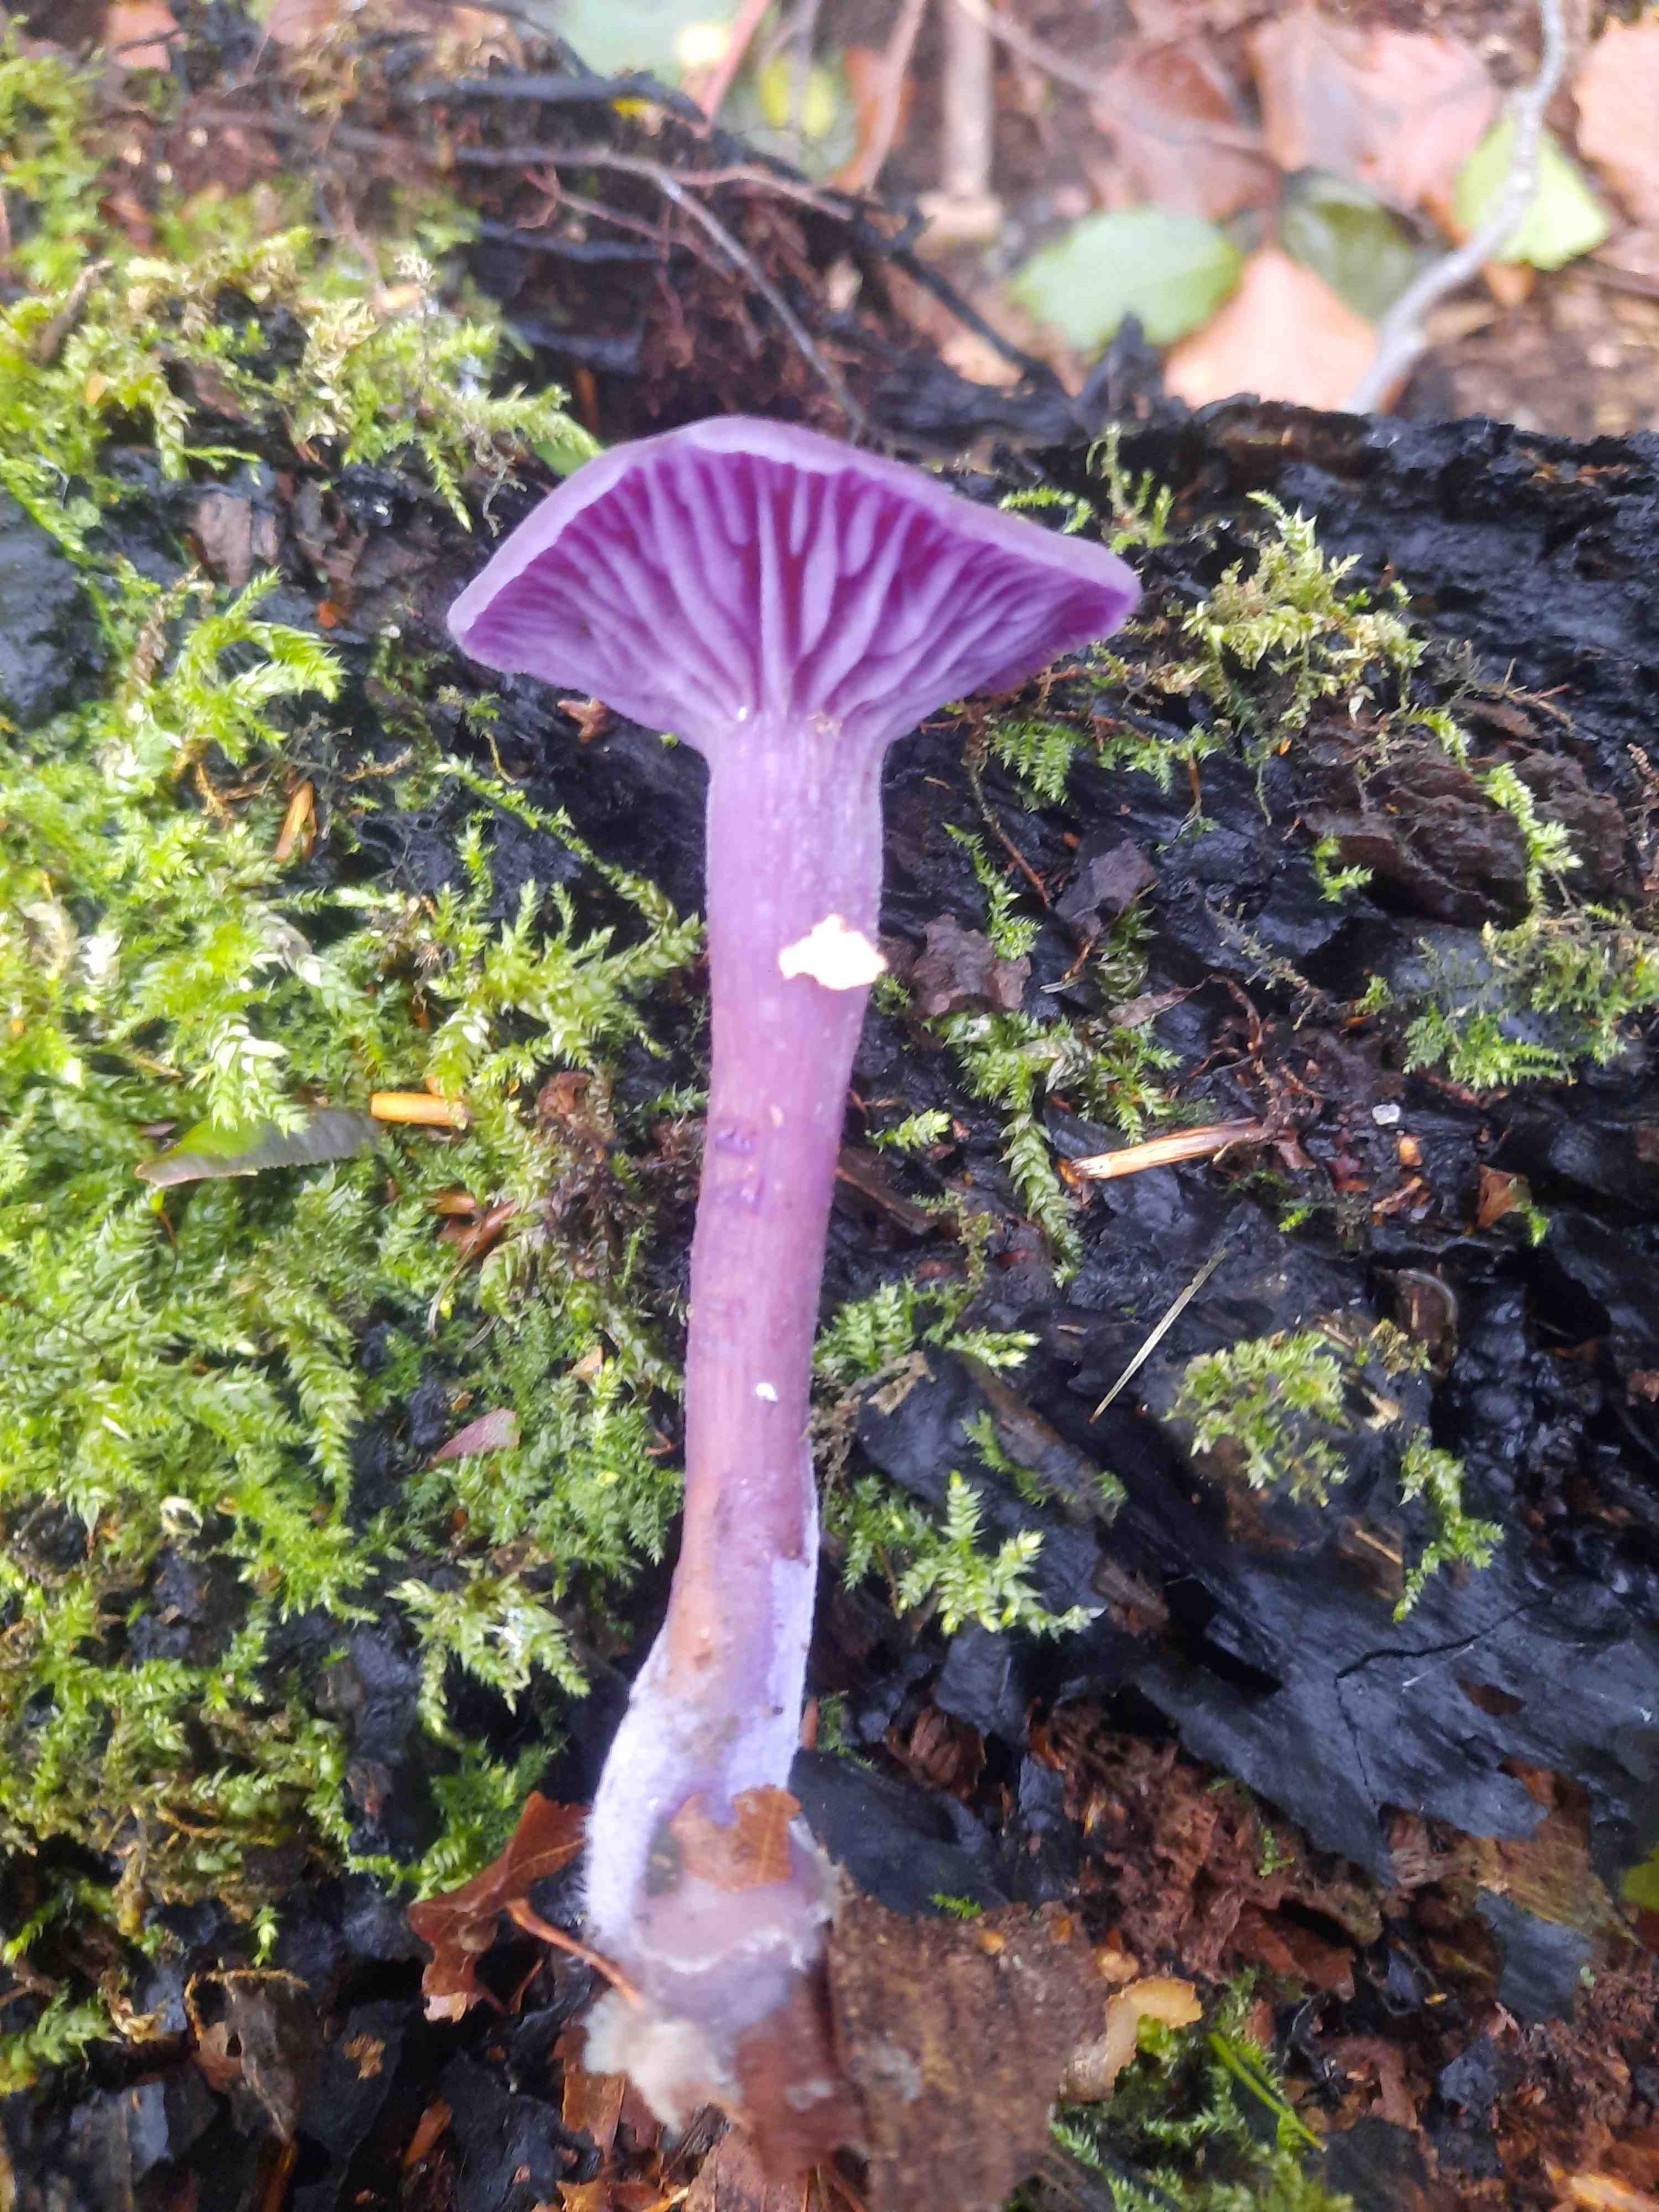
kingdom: Fungi
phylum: Basidiomycota
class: Agaricomycetes
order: Agaricales
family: Hydnangiaceae
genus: Laccaria
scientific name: Laccaria amethystina
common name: violet ametysthat
